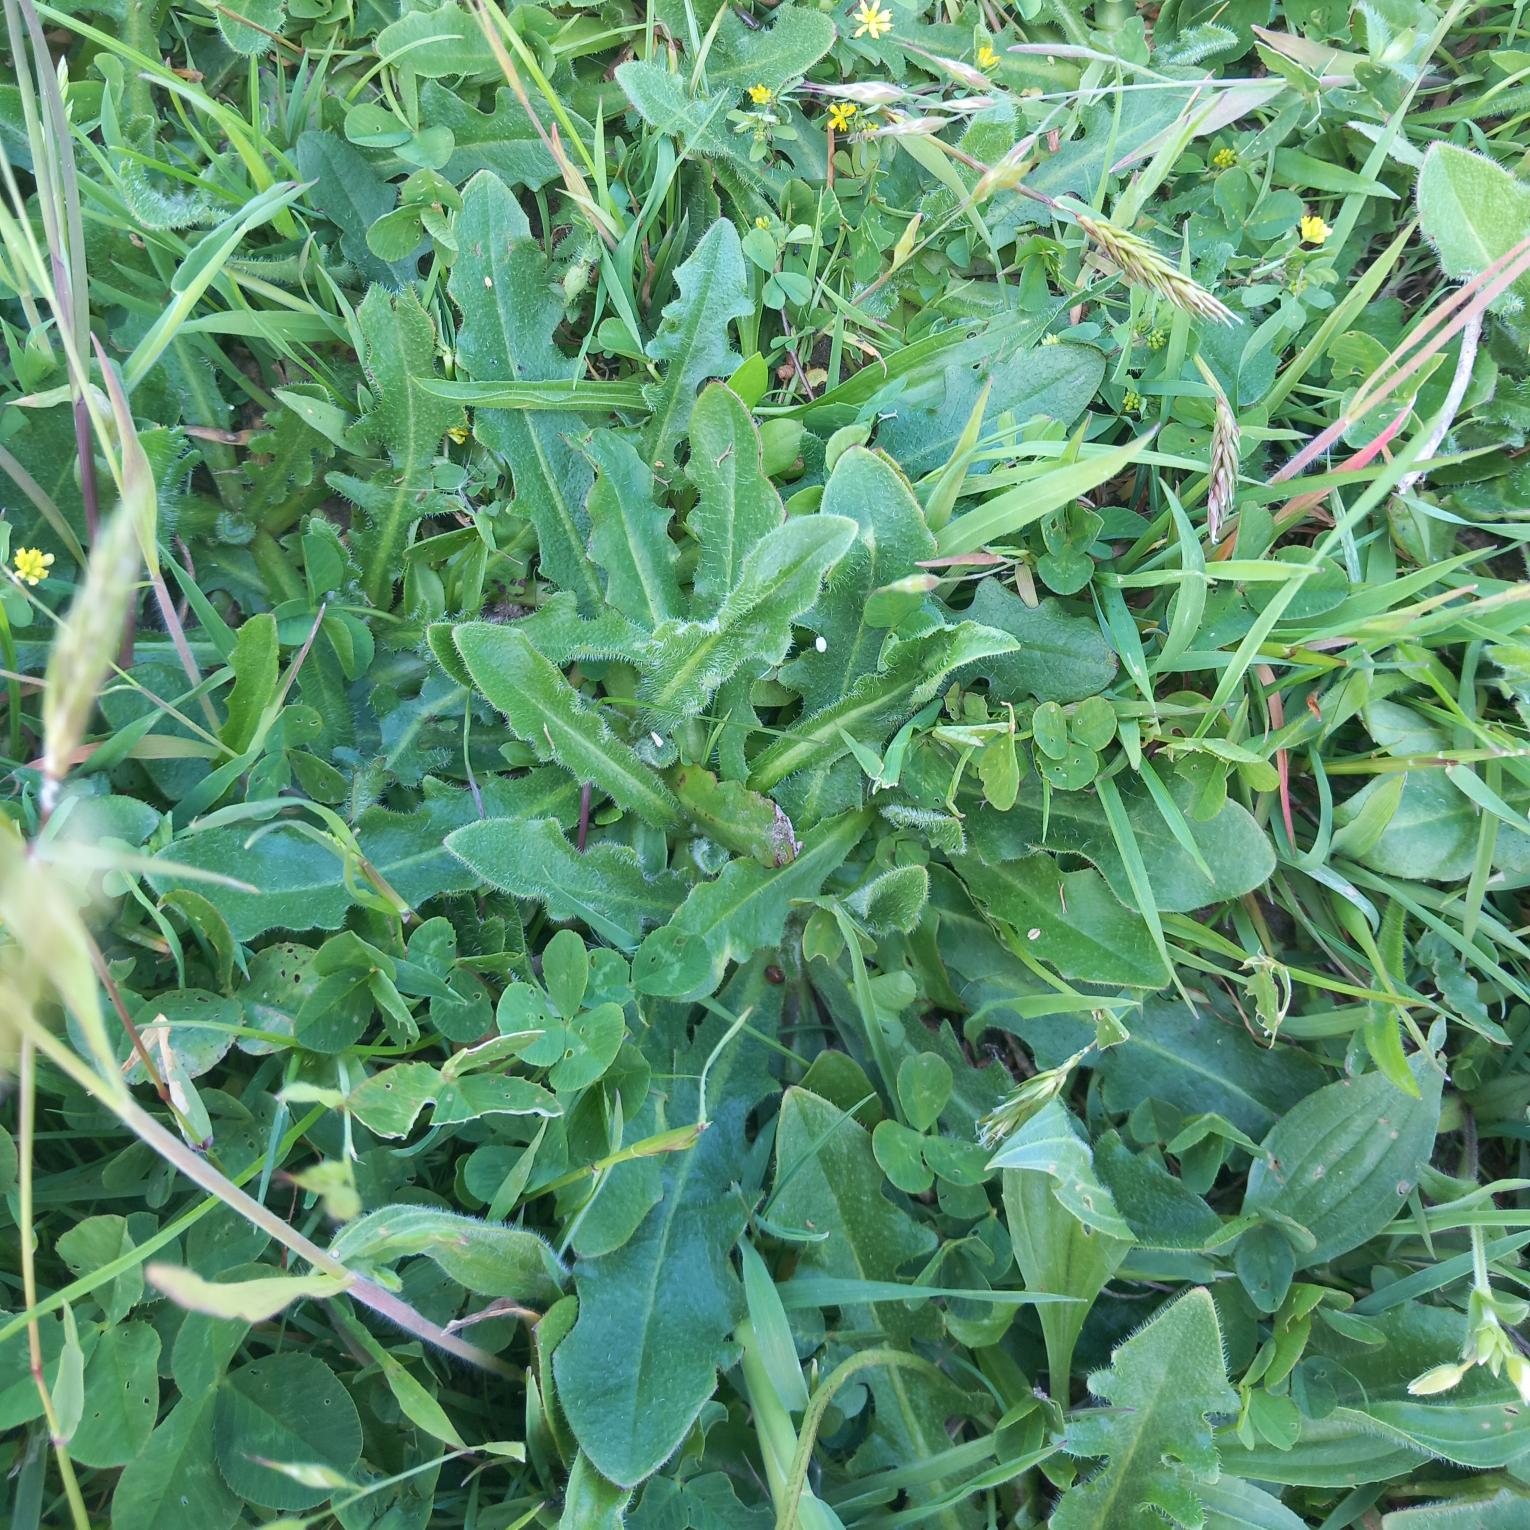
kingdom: Plantae
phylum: Tracheophyta
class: Magnoliopsida
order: Asterales
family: Asteraceae
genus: Hypochaeris
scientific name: Hypochaeris radicata
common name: Almindelig kongepen
